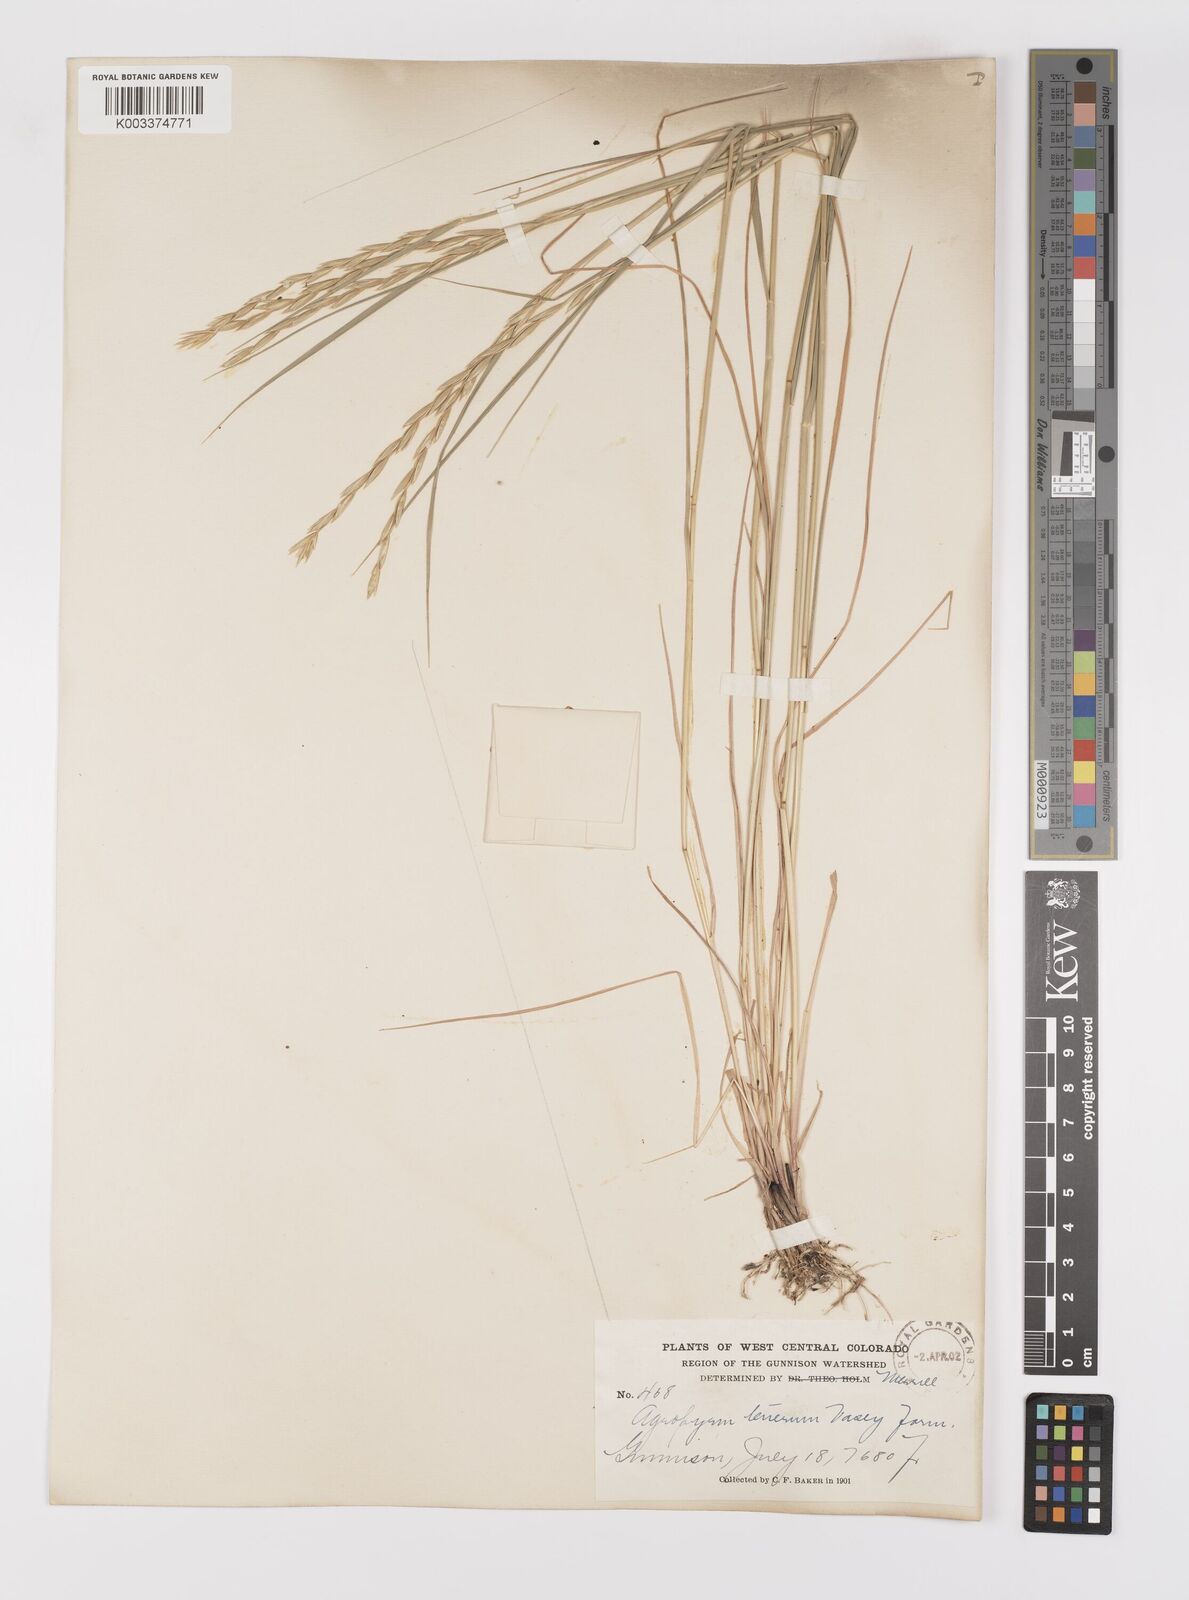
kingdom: Plantae
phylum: Tracheophyta
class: Liliopsida
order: Poales
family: Poaceae
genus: Elymus
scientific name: Elymus violaceus
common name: Arctic wheatgrass
